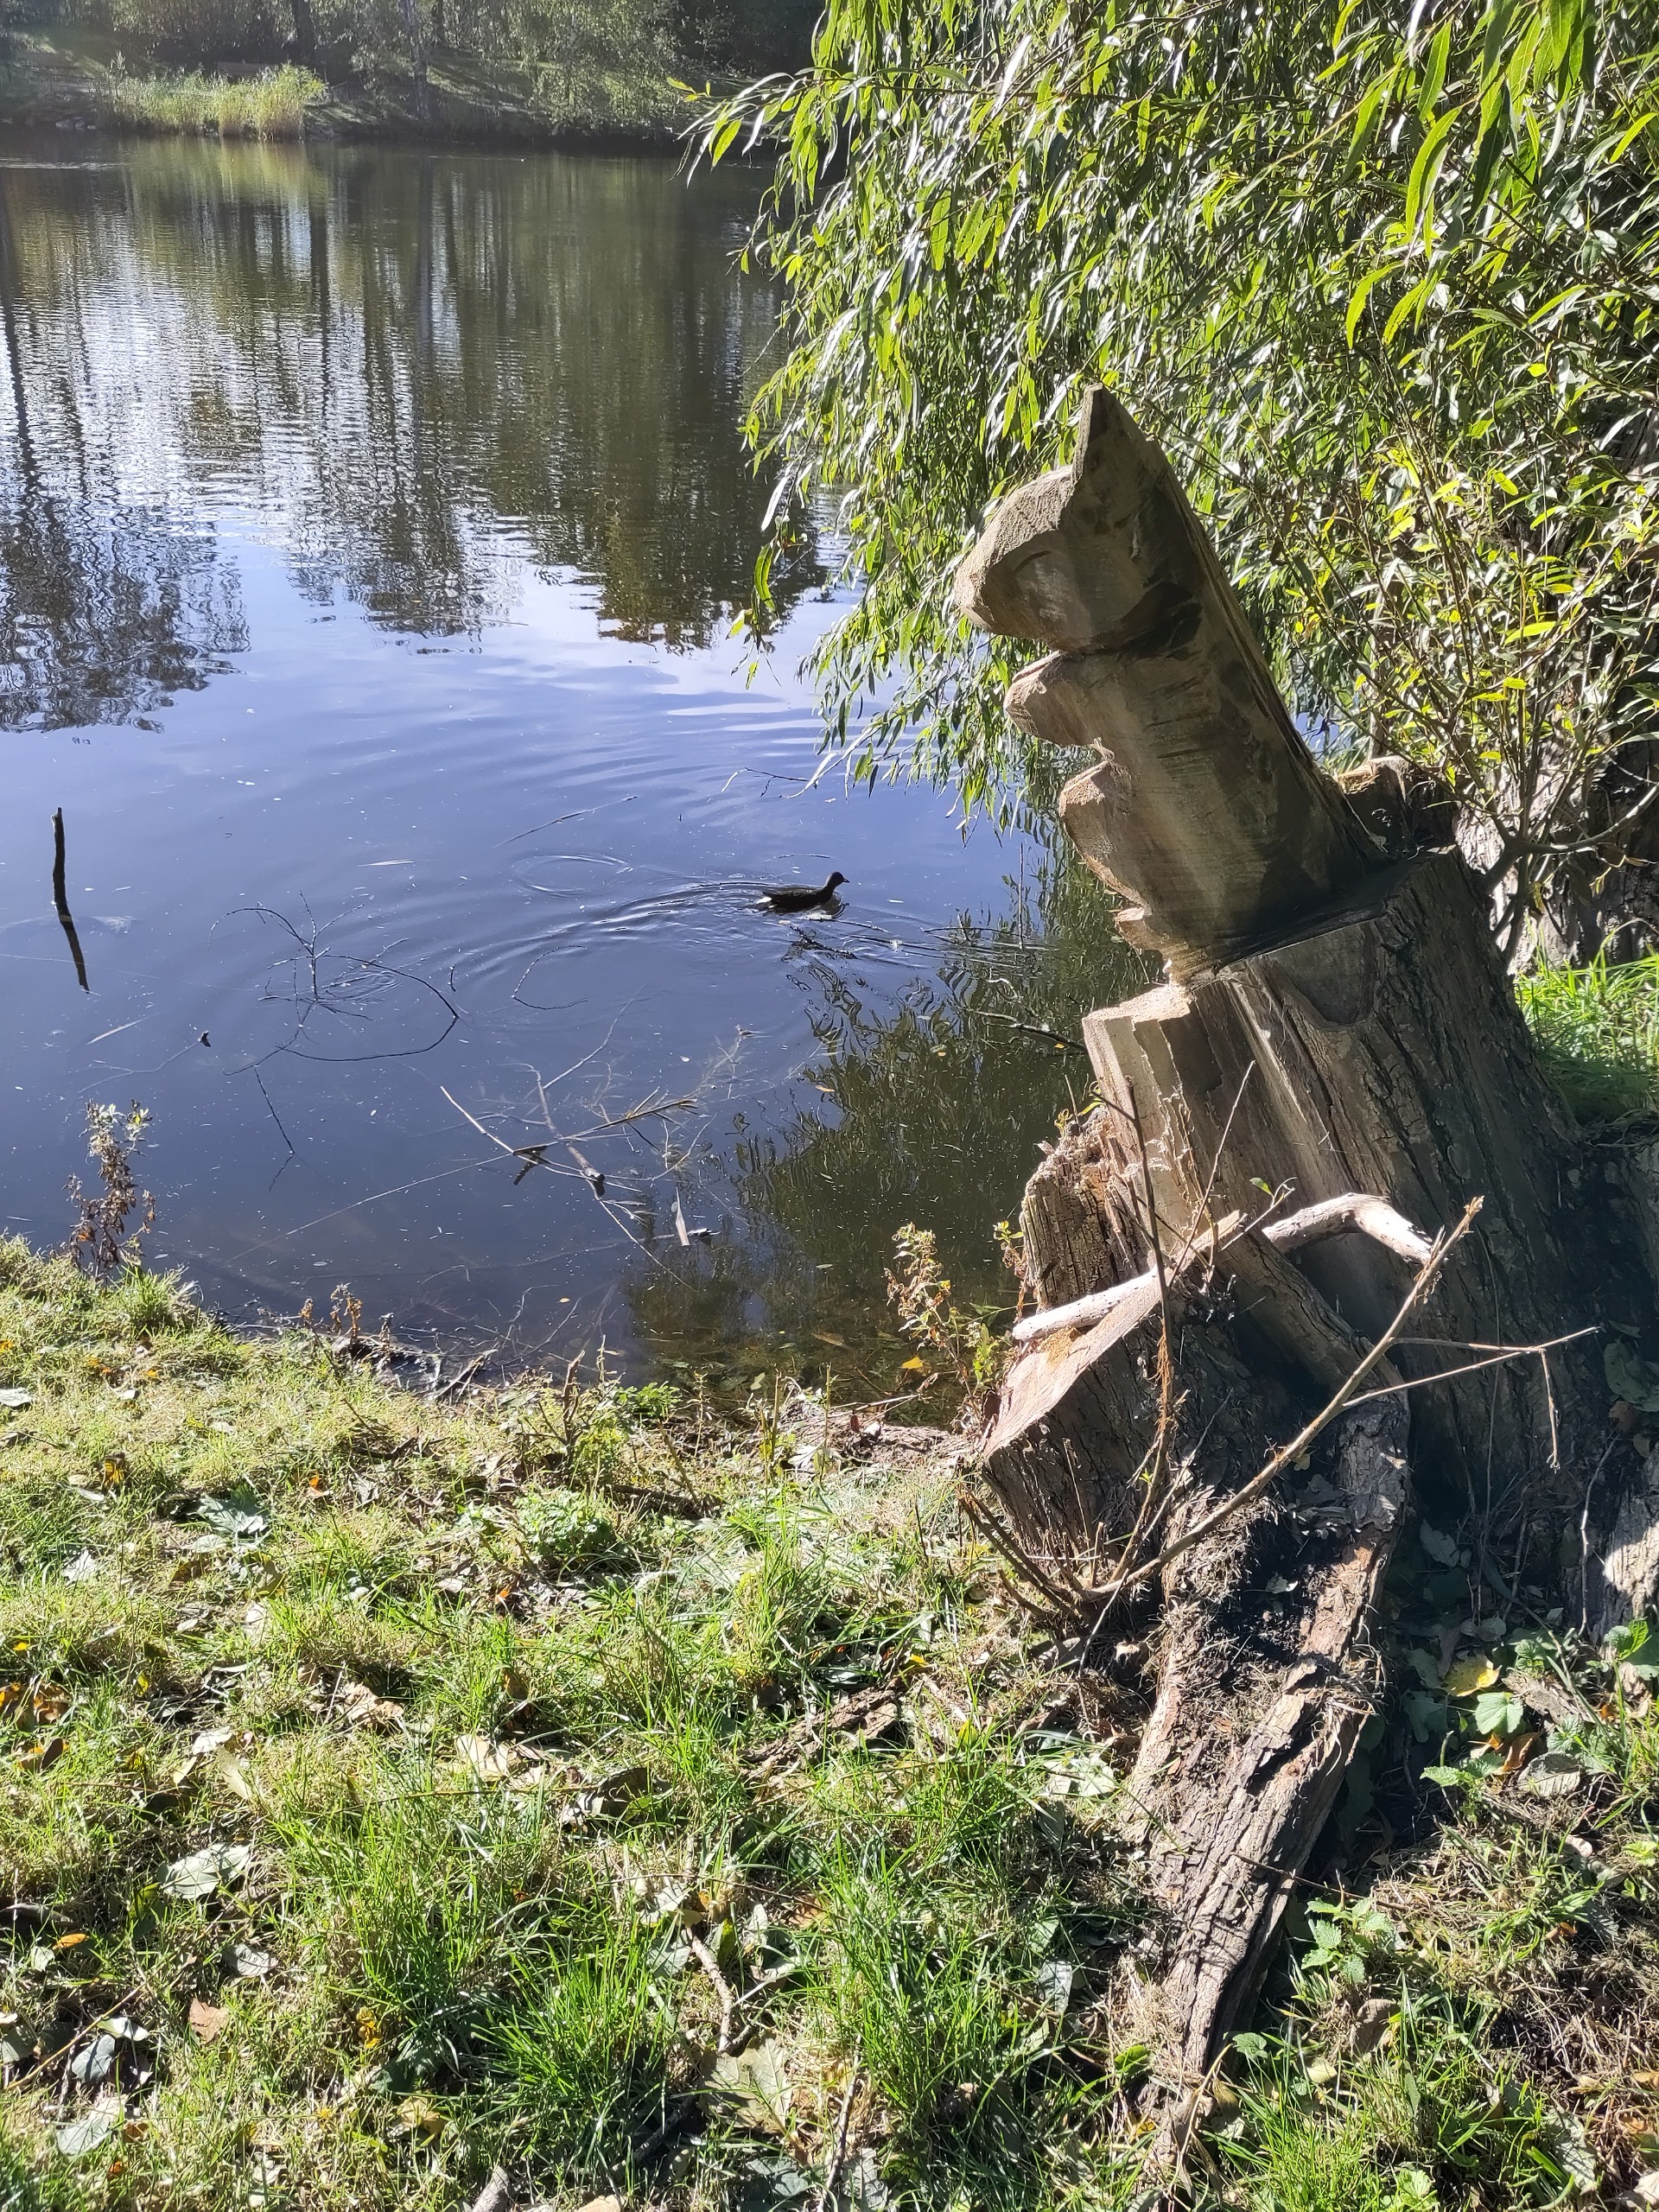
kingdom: Animalia
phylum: Chordata
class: Aves
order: Gruiformes
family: Rallidae
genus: Gallinula
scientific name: Gallinula chloropus
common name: Grønbenet rørhøne
